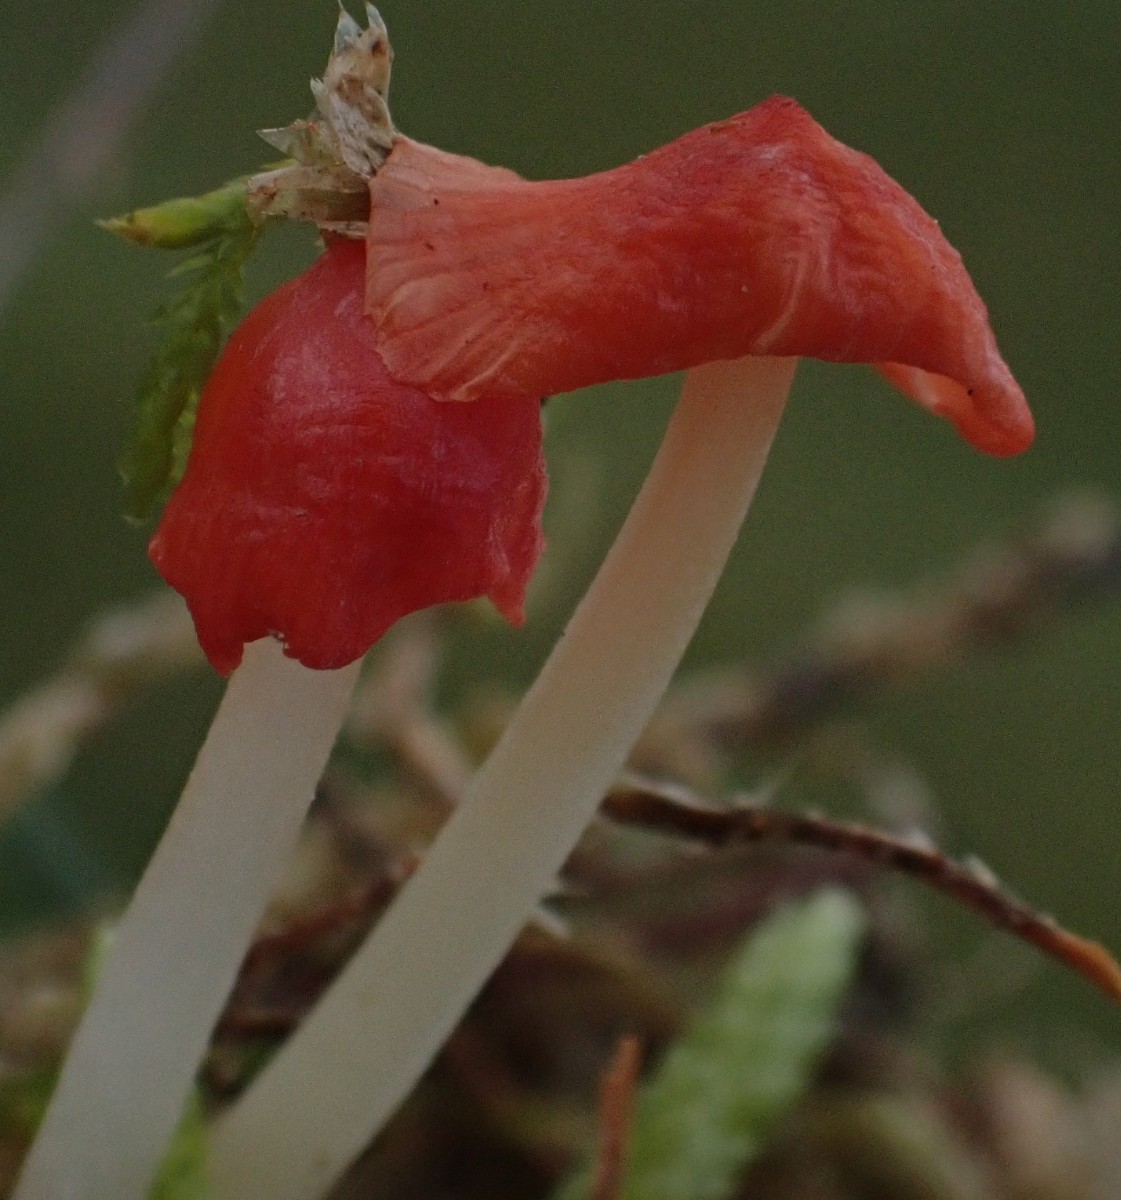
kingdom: Fungi
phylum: Basidiomycota
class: Agaricomycetes
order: Agaricales
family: Mycenaceae
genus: Atheniella
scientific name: Atheniella adonis
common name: rønnerød huesvamp
